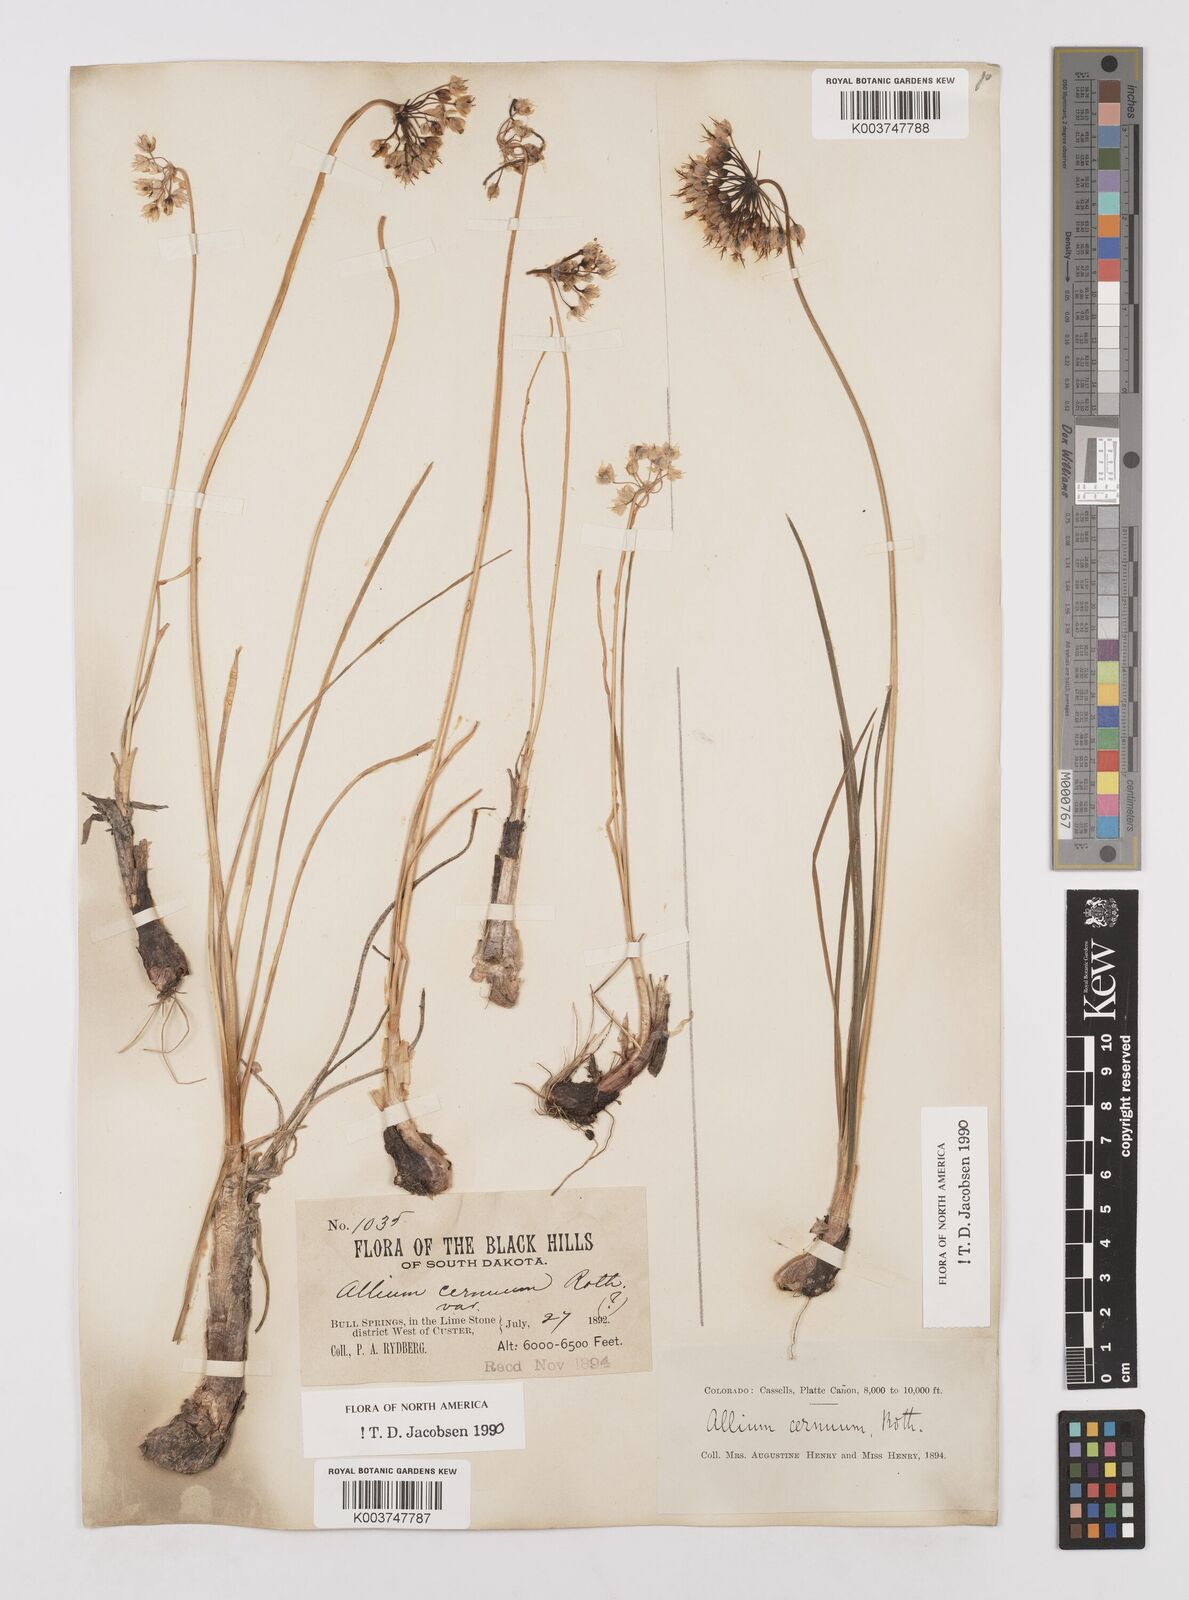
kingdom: Plantae
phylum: Tracheophyta
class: Liliopsida
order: Asparagales
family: Amaryllidaceae
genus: Allium
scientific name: Allium cernuum
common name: Nodding onion
